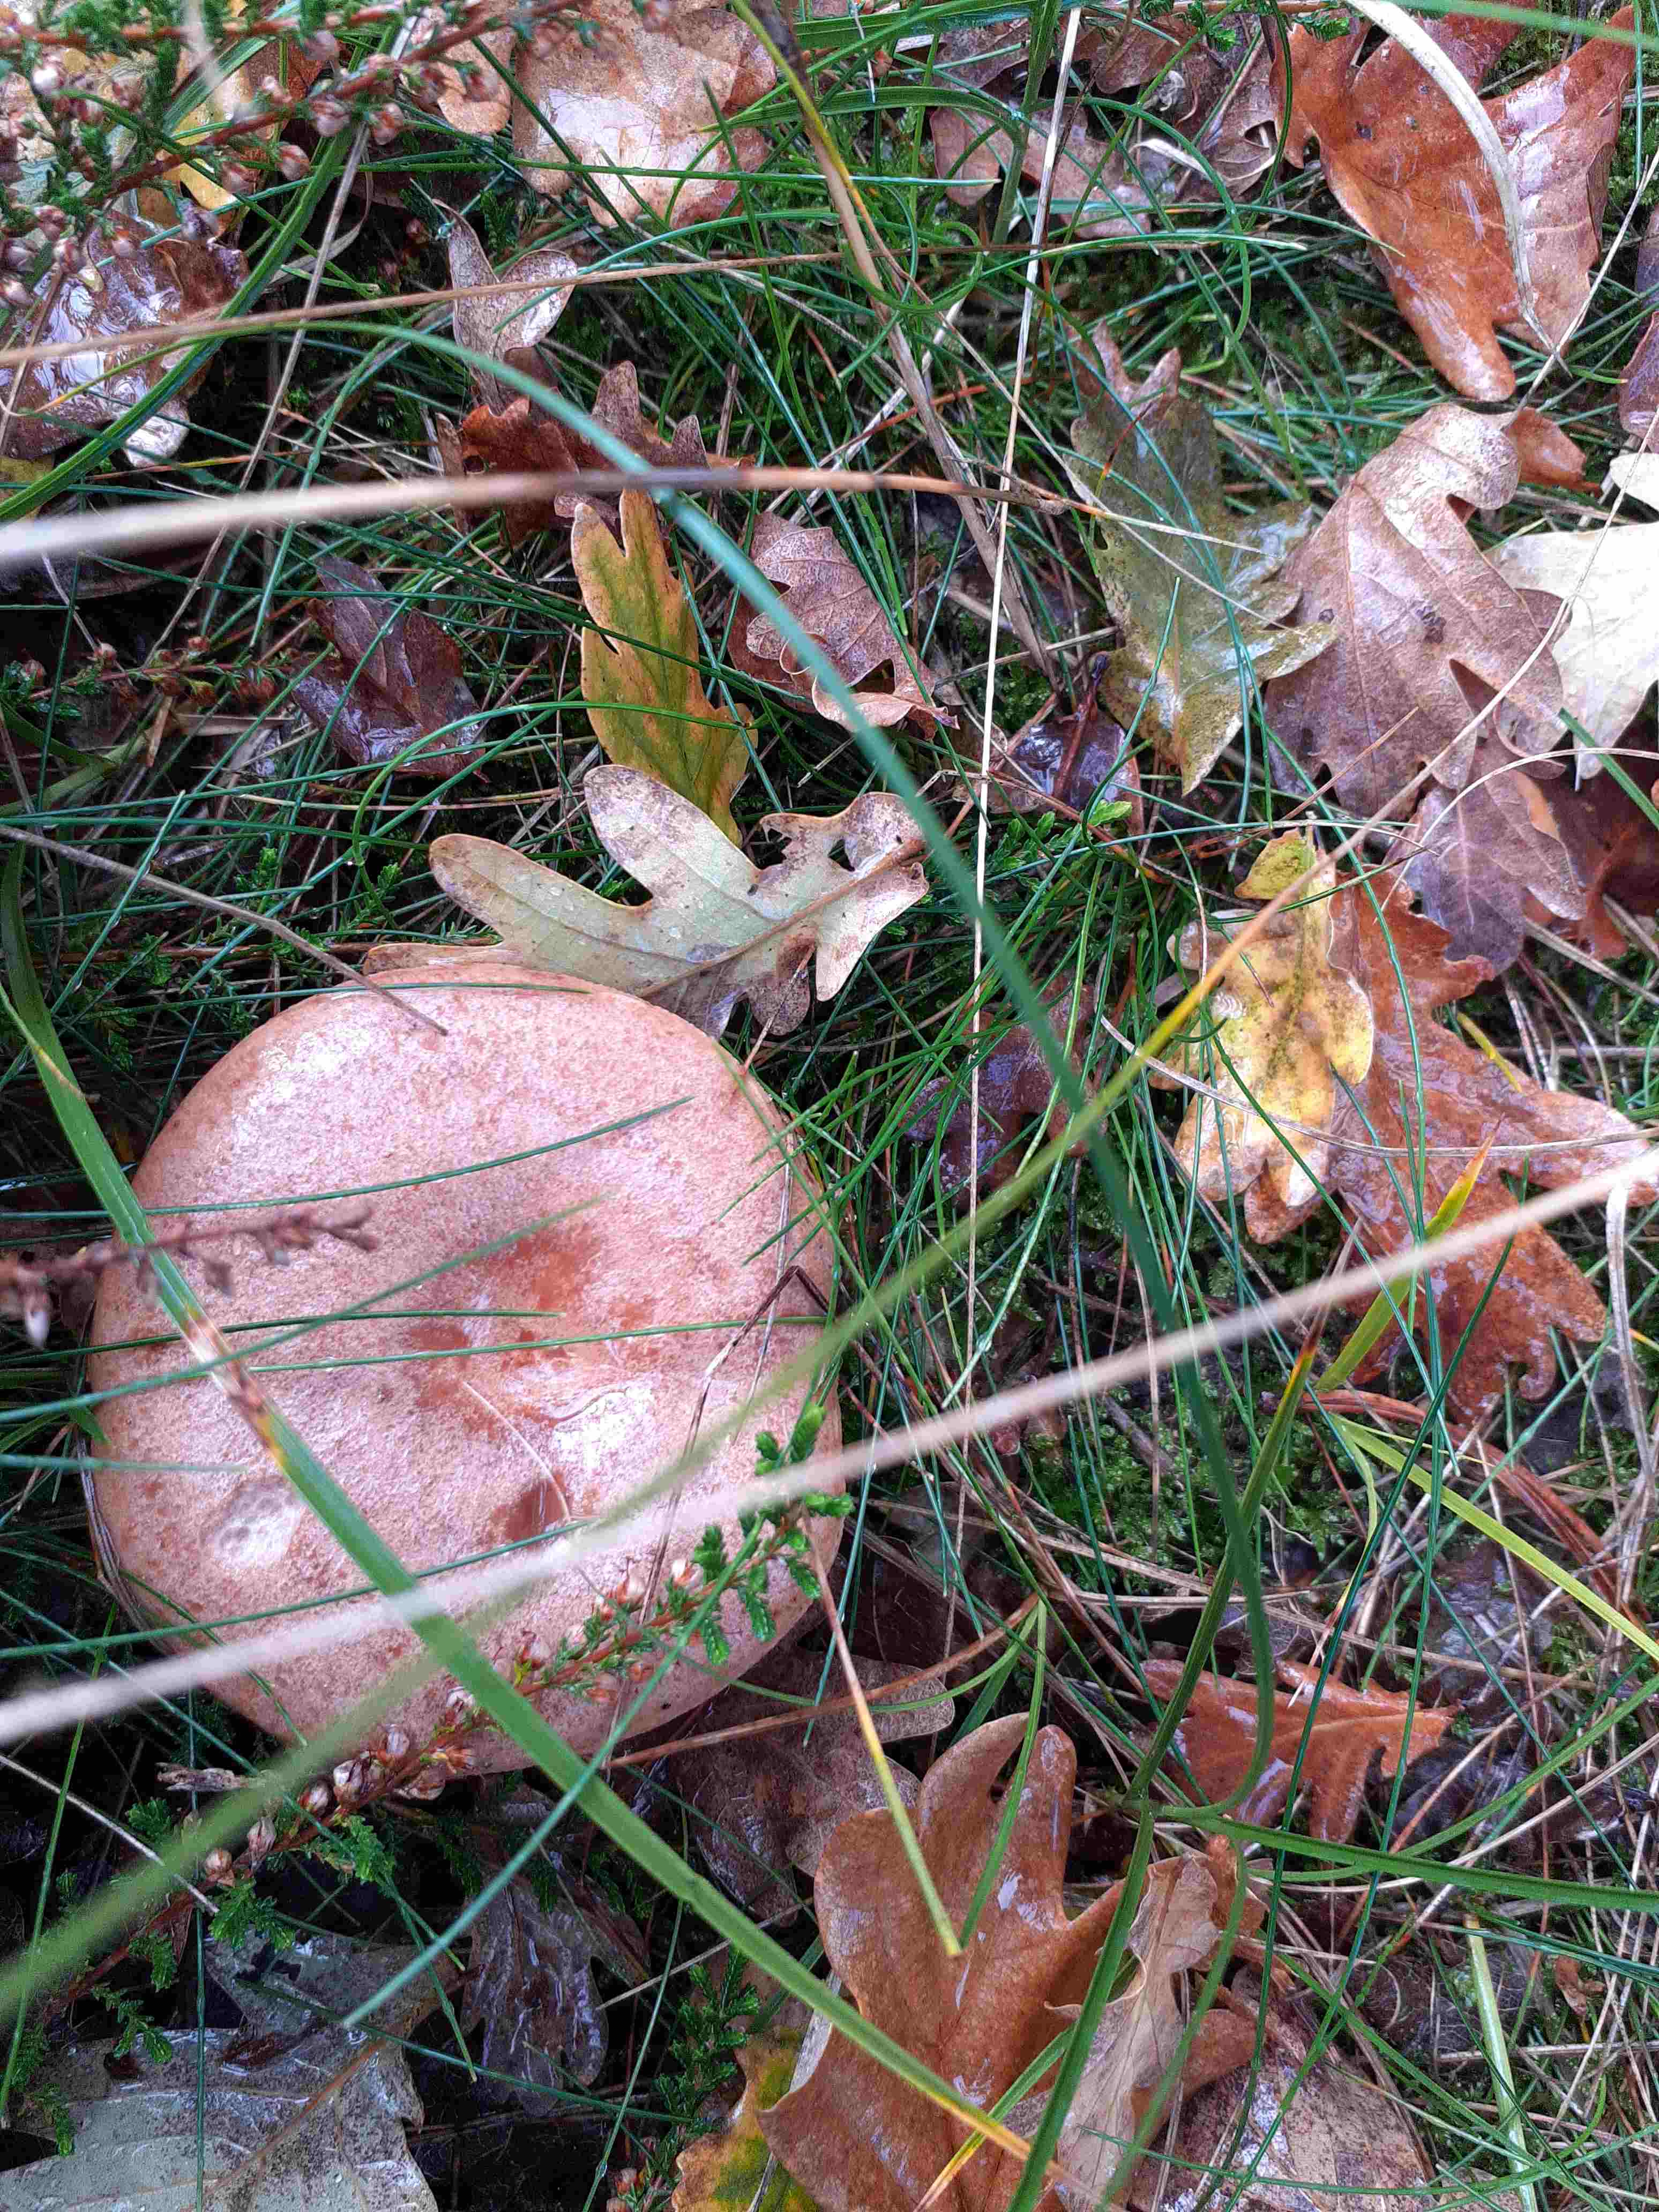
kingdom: Fungi
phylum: Basidiomycota
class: Agaricomycetes
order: Russulales
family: Russulaceae
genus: Lactarius
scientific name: Lactarius quietus
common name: ege-mælkehat
